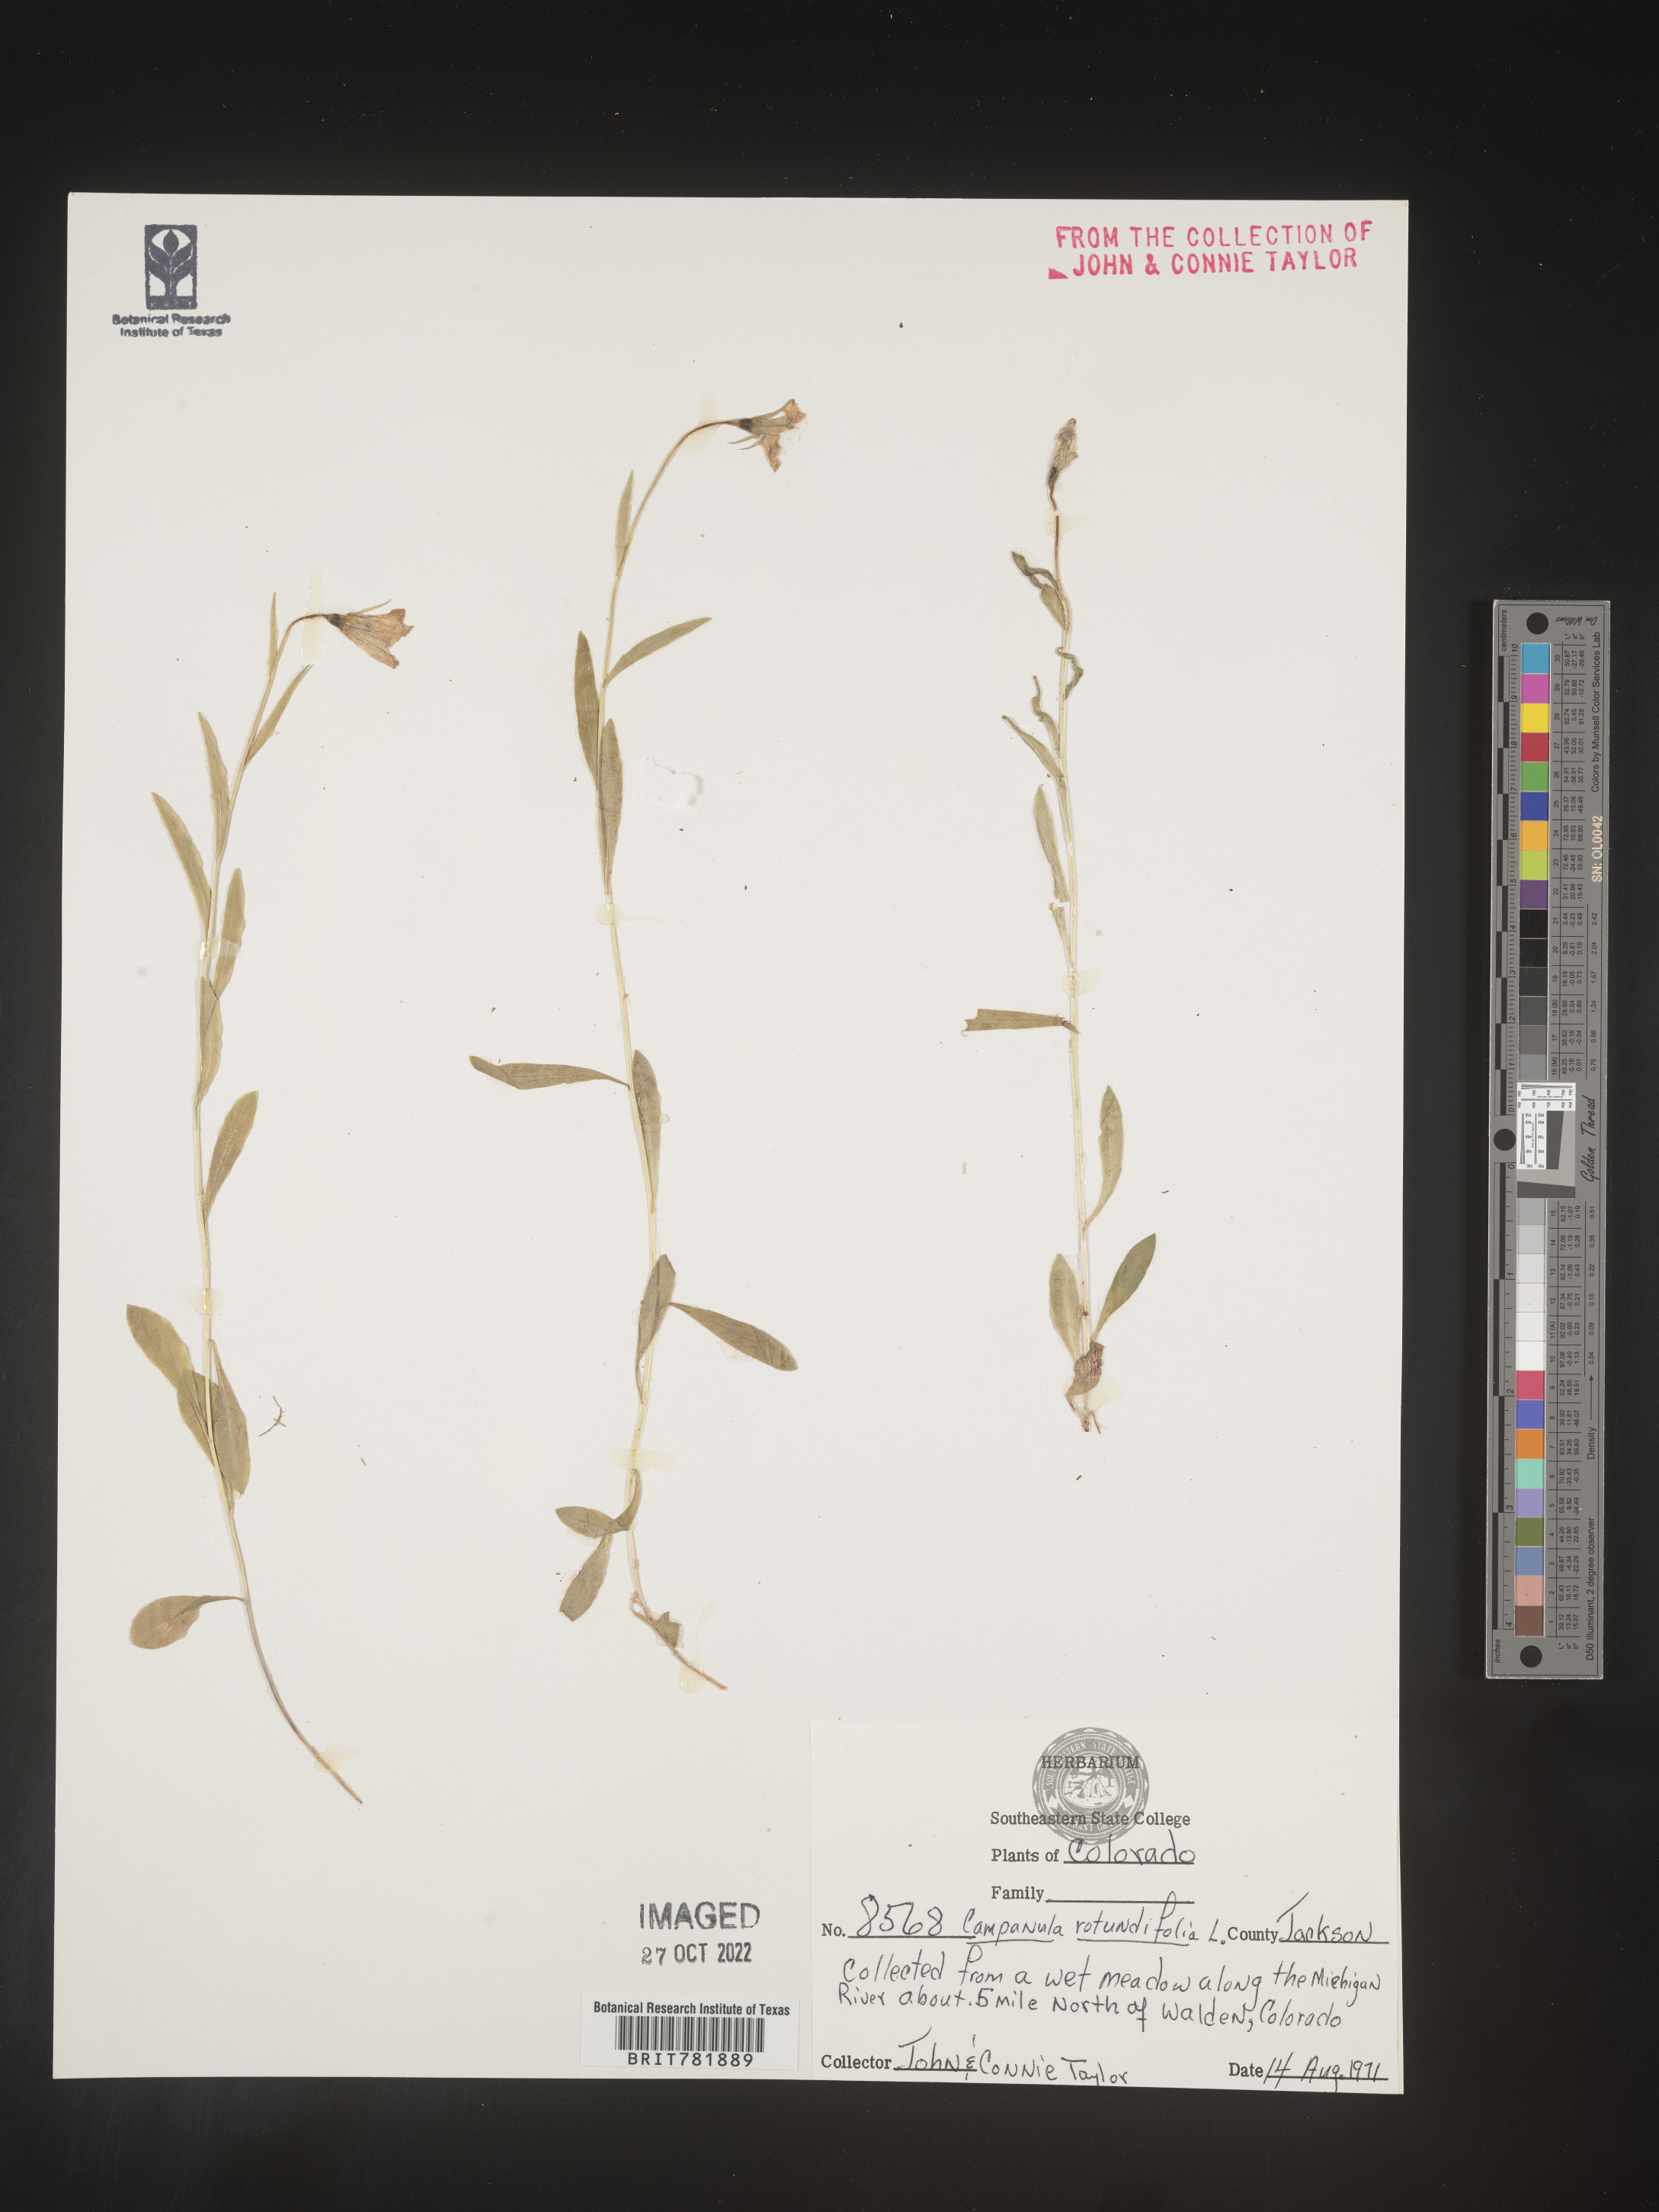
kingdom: Plantae
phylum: Tracheophyta
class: Magnoliopsida
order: Asterales
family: Campanulaceae
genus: Campanula
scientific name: Campanula rotundifolia
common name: Harebell
